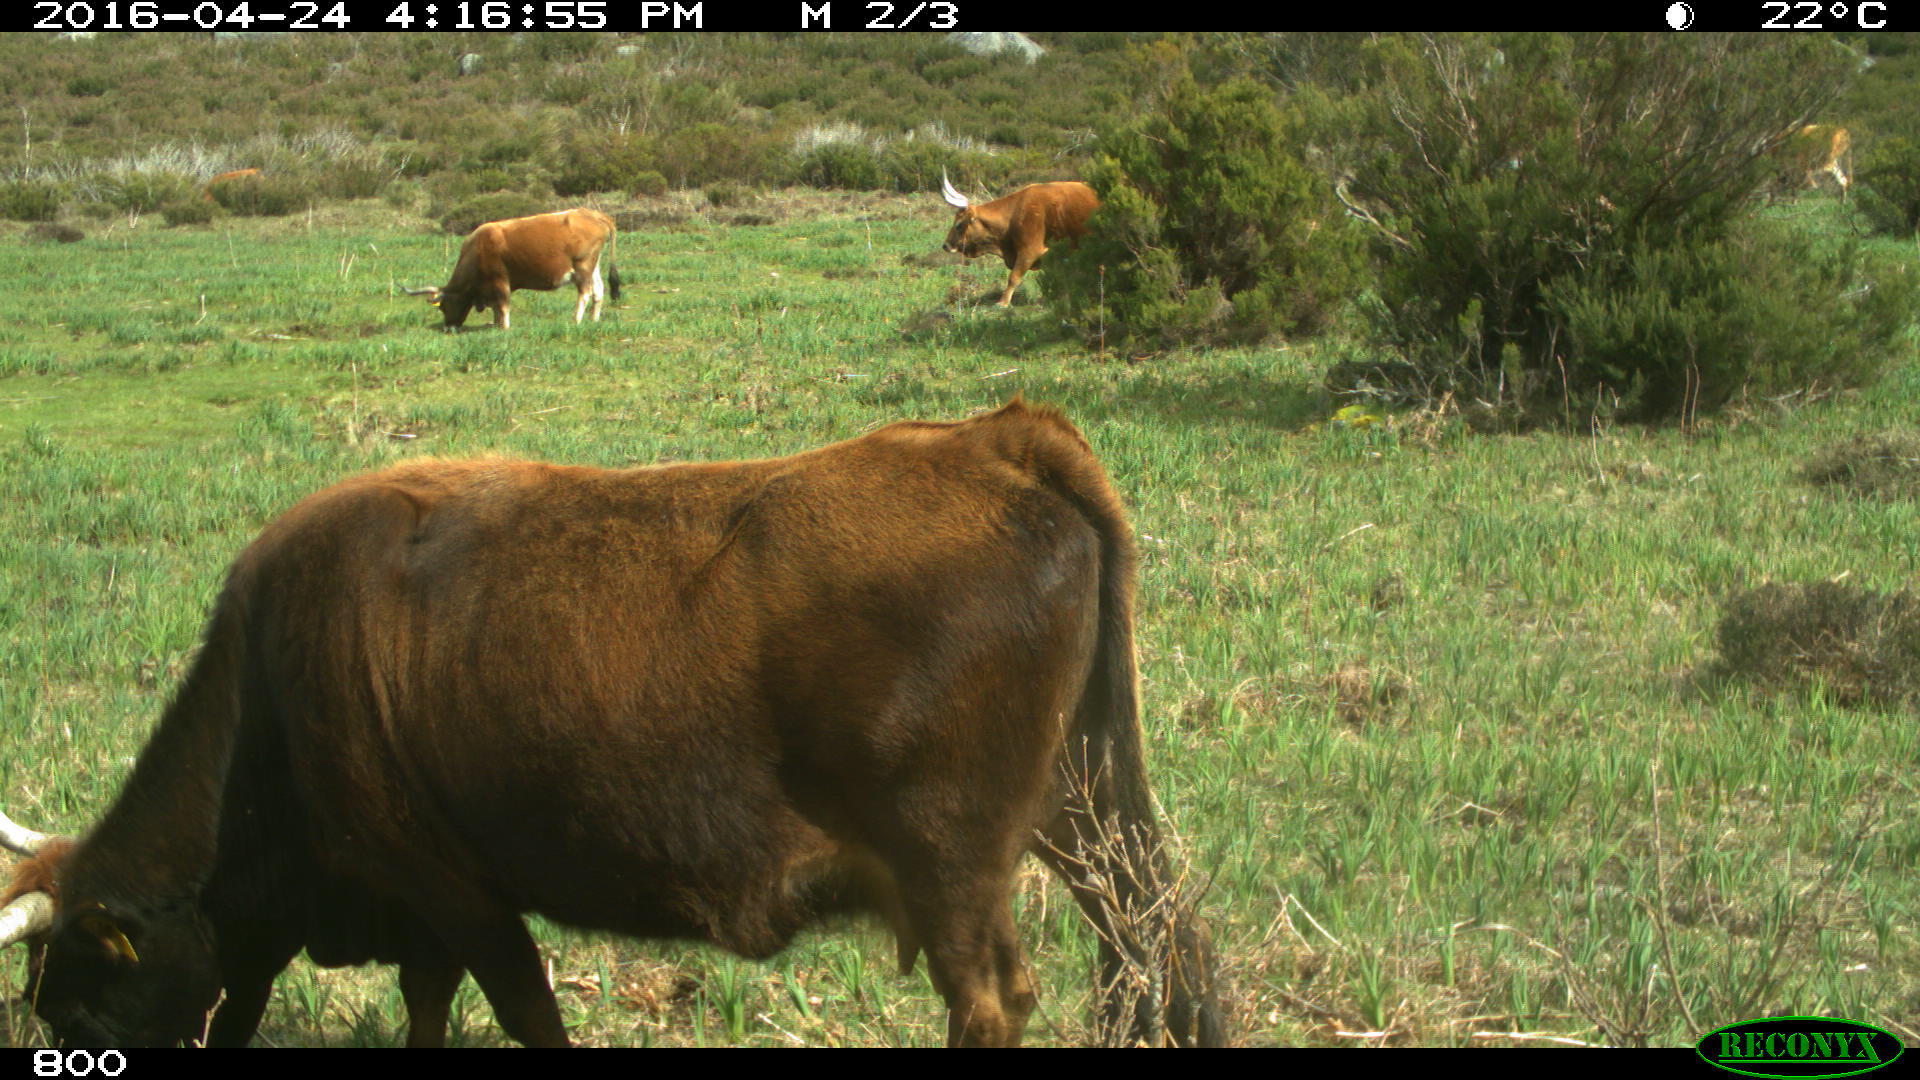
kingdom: Animalia
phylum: Chordata
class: Mammalia
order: Artiodactyla
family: Bovidae
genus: Bos
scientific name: Bos taurus
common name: Domesticated cattle
